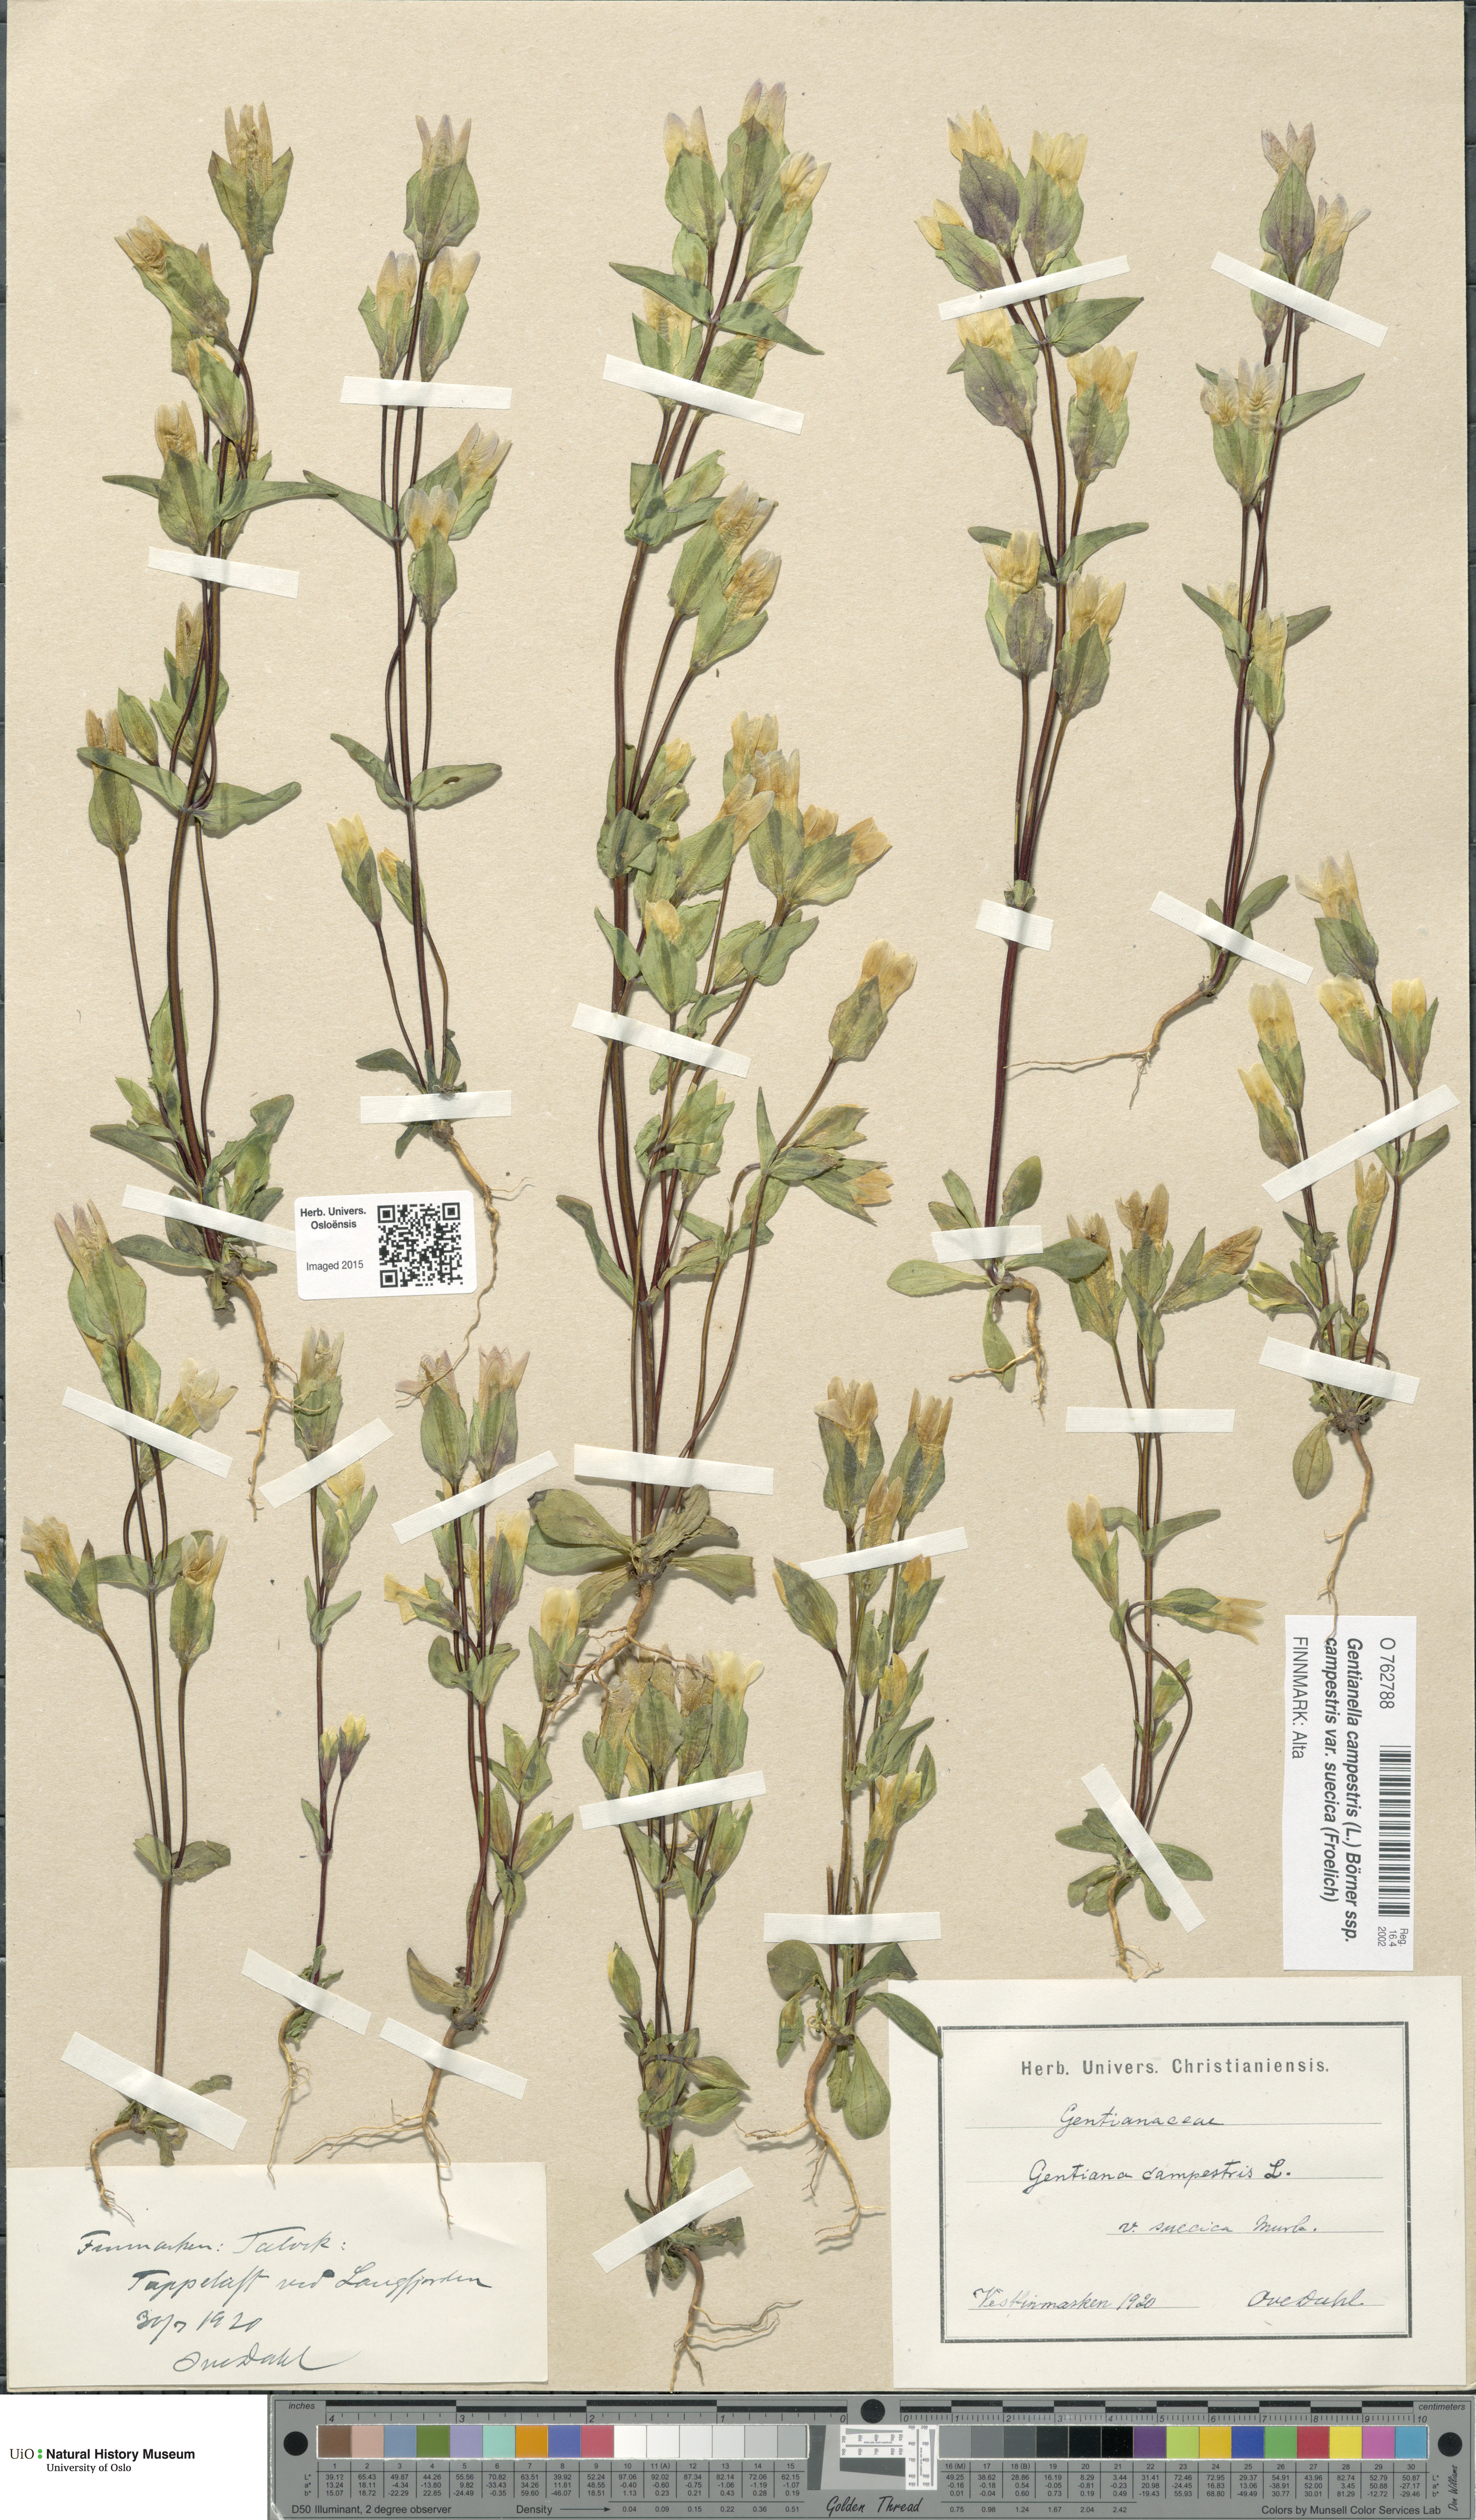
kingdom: Plantae
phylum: Tracheophyta
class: Magnoliopsida
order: Gentianales
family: Gentianaceae
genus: Gentianella
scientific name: Gentianella campestris
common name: Field gentian
